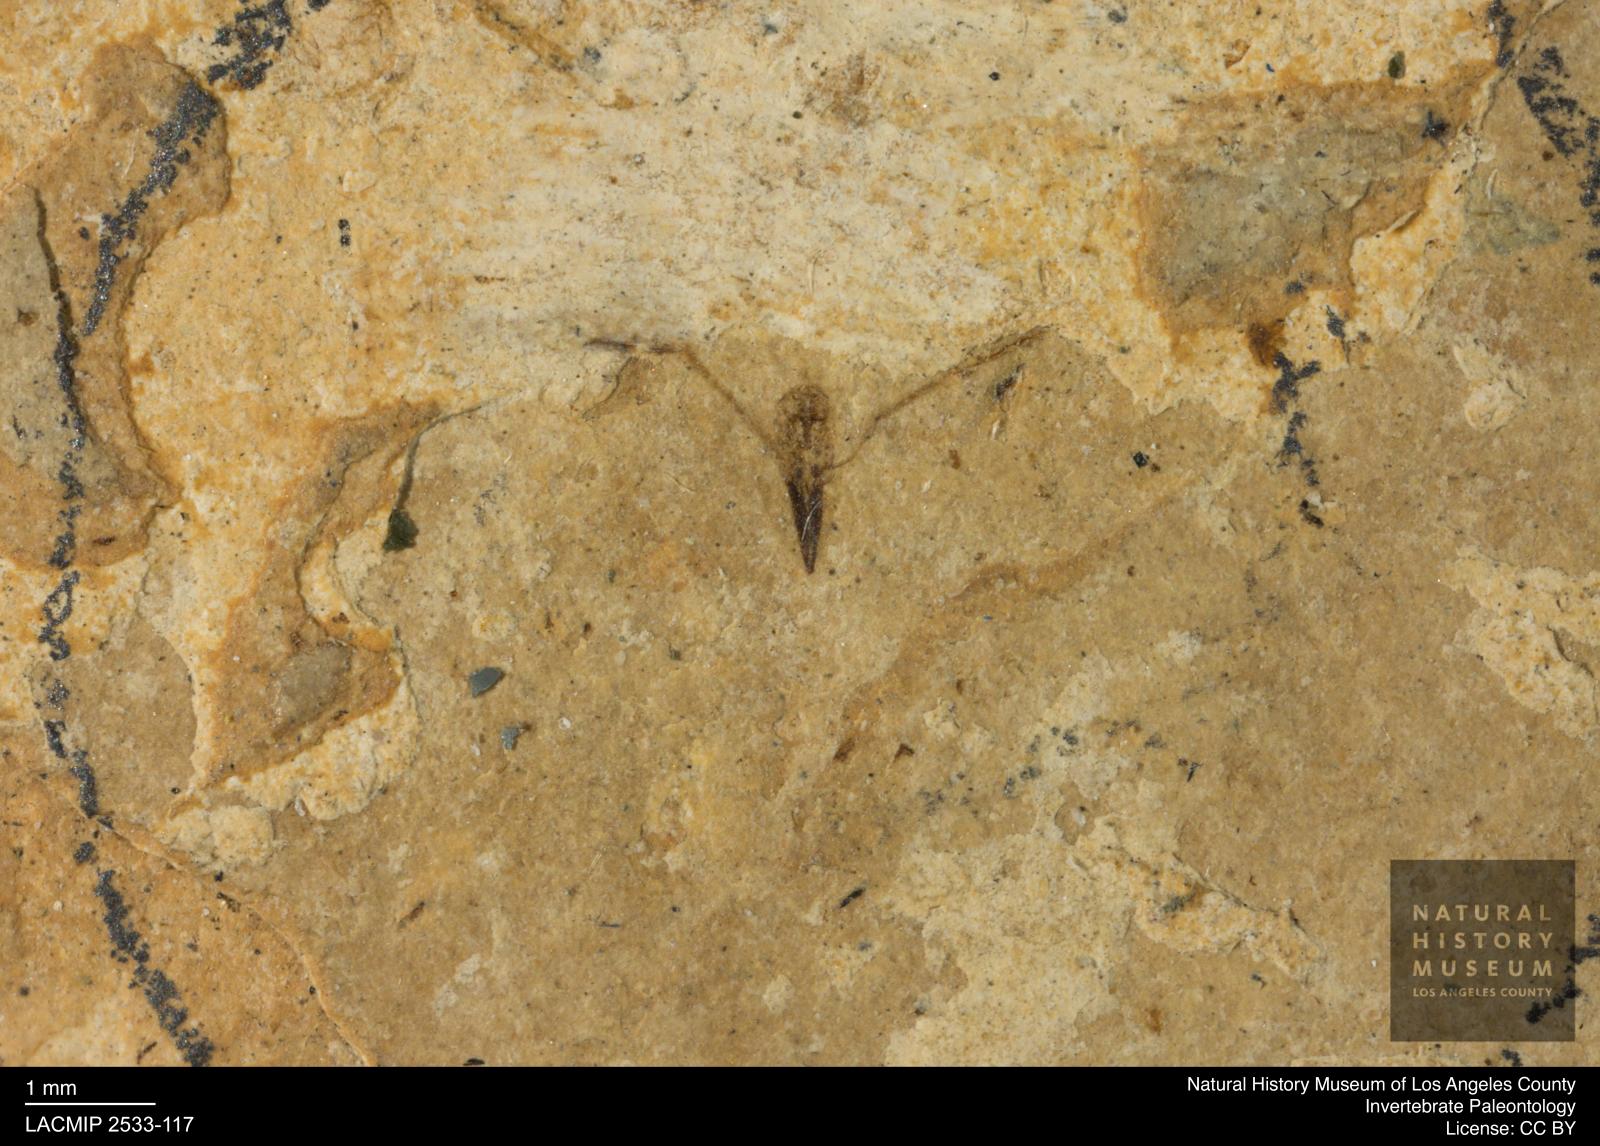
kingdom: Animalia
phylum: Arthropoda
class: Insecta
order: Hemiptera
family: Notonectidae
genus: Anisops
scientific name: Anisops Notonecta heydeni
